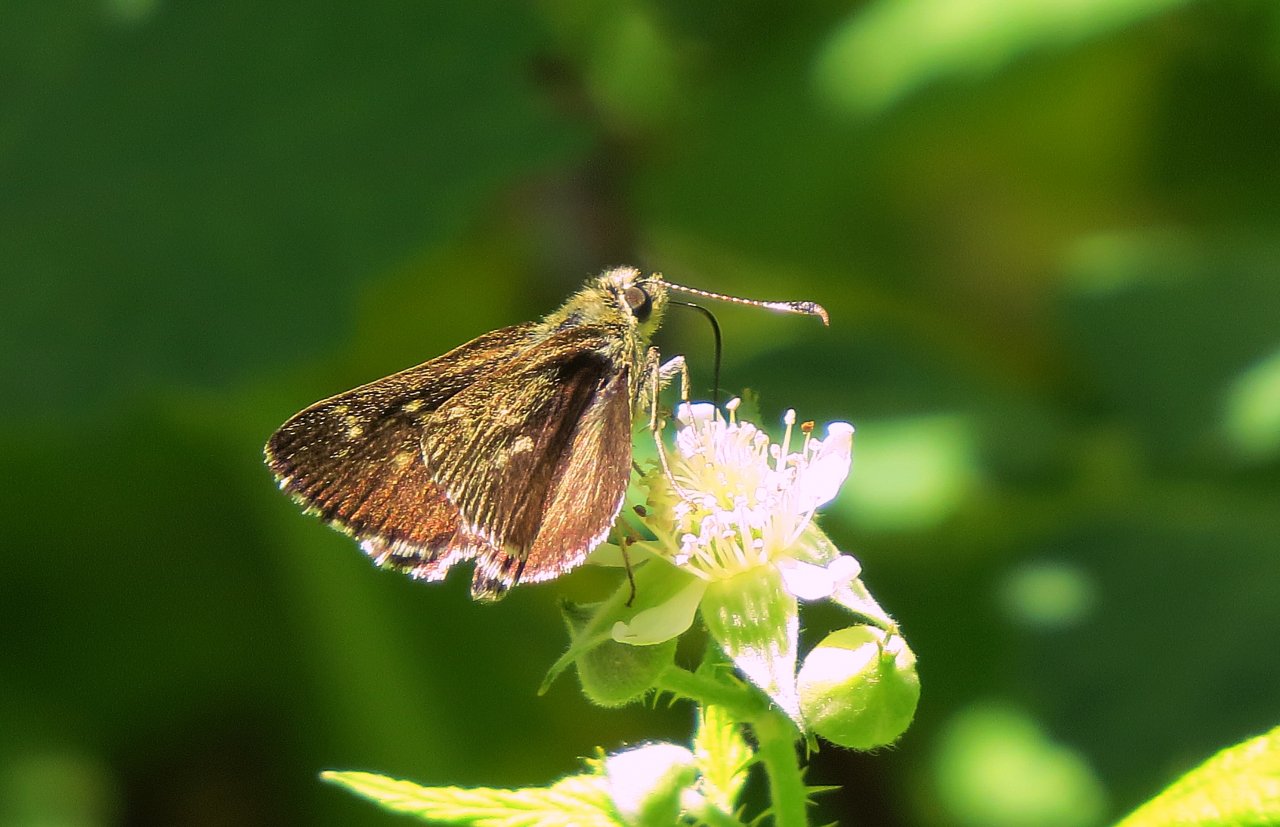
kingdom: Animalia
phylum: Arthropoda
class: Insecta
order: Lepidoptera
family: Hesperiidae
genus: Mastor
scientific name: Mastor hegon
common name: Pepper and Salt Skipper
